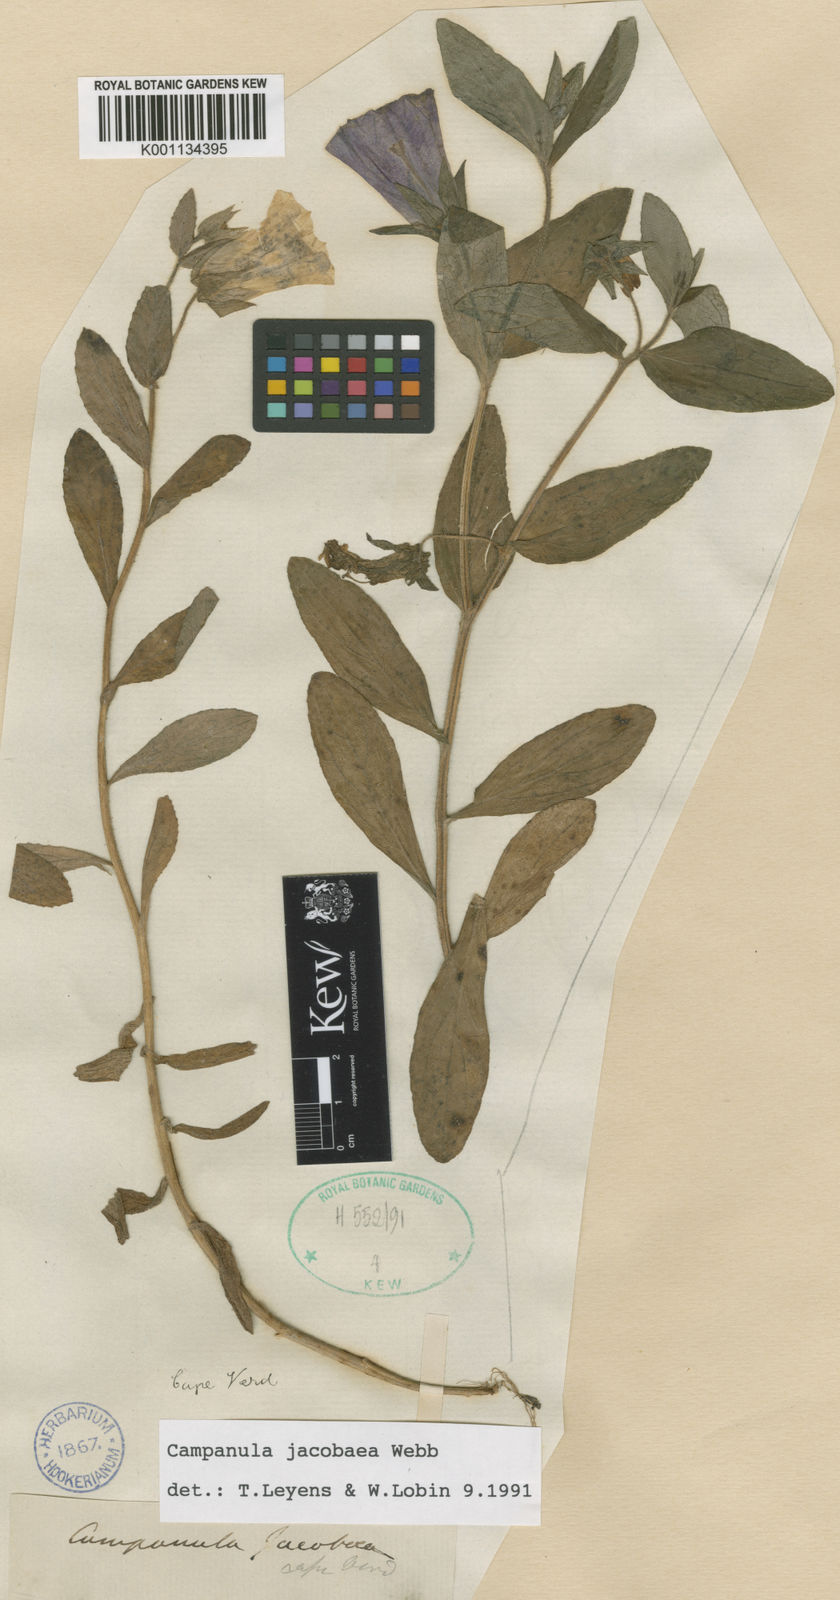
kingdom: Plantae
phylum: Tracheophyta
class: Magnoliopsida
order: Asterales
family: Campanulaceae
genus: Campanula
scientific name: Campanula
